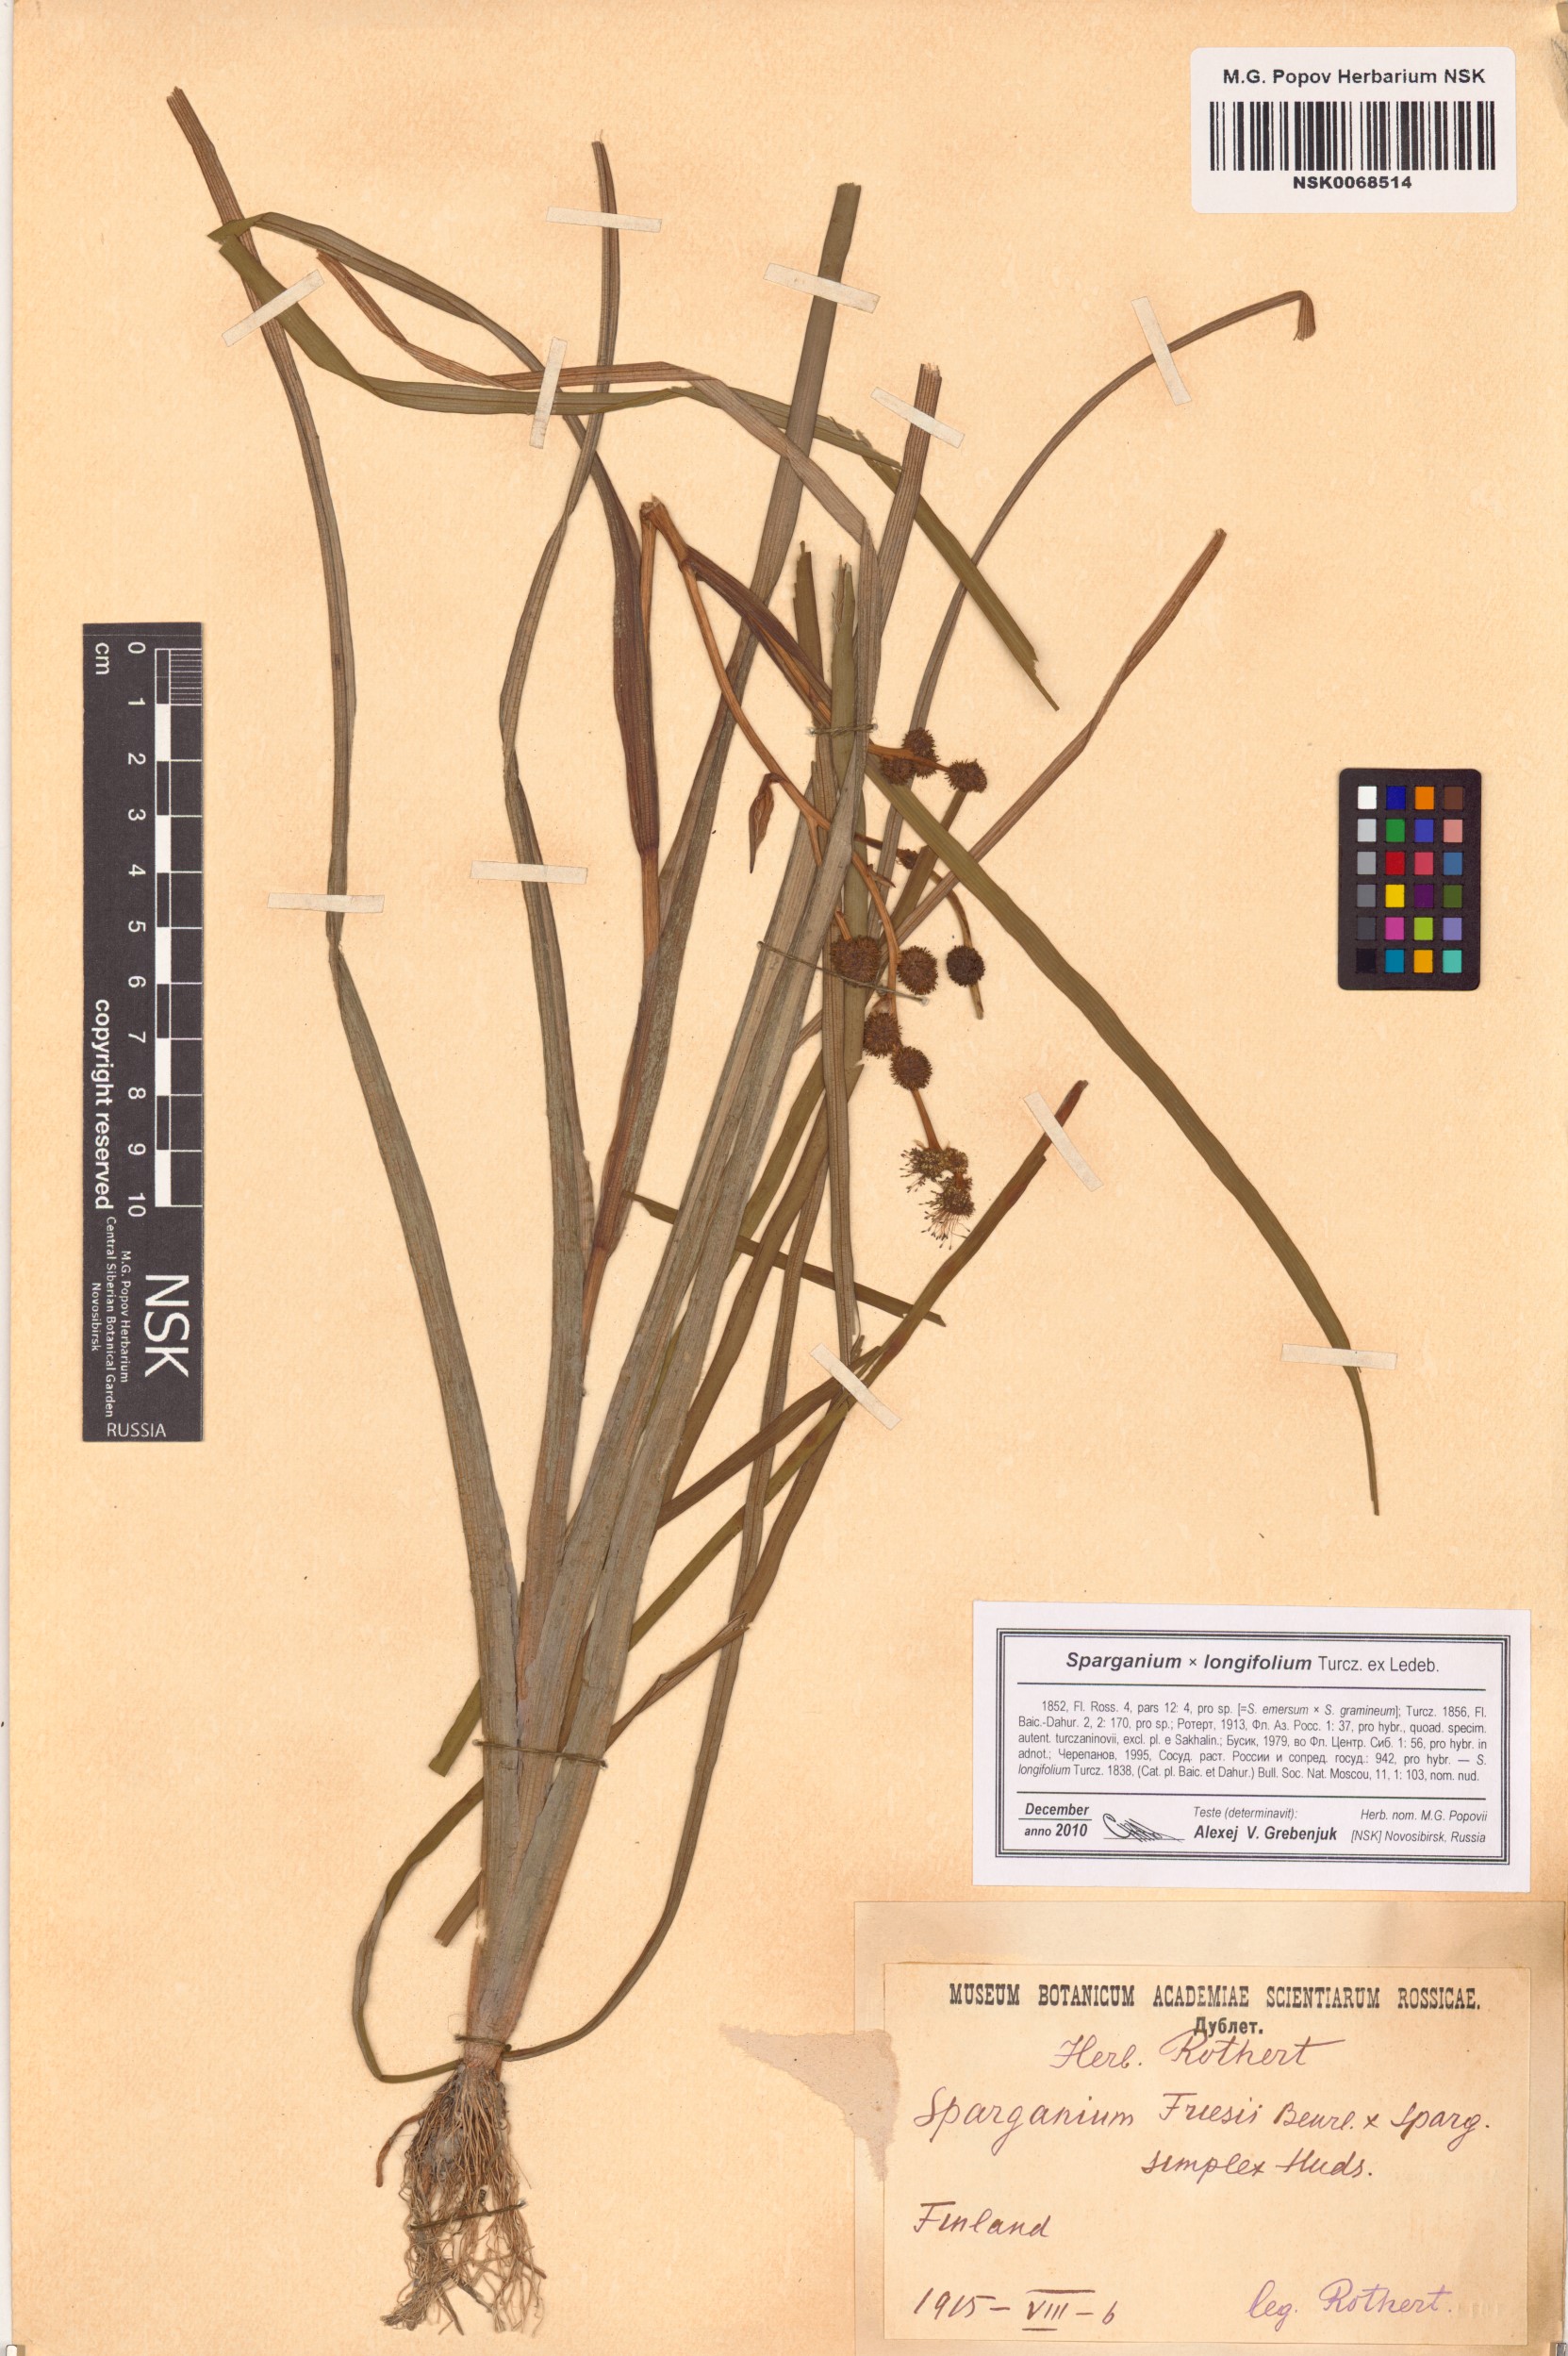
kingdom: Plantae
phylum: Tracheophyta
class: Liliopsida
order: Poales
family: Typhaceae
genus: Sparganium
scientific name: Sparganium longifolium
